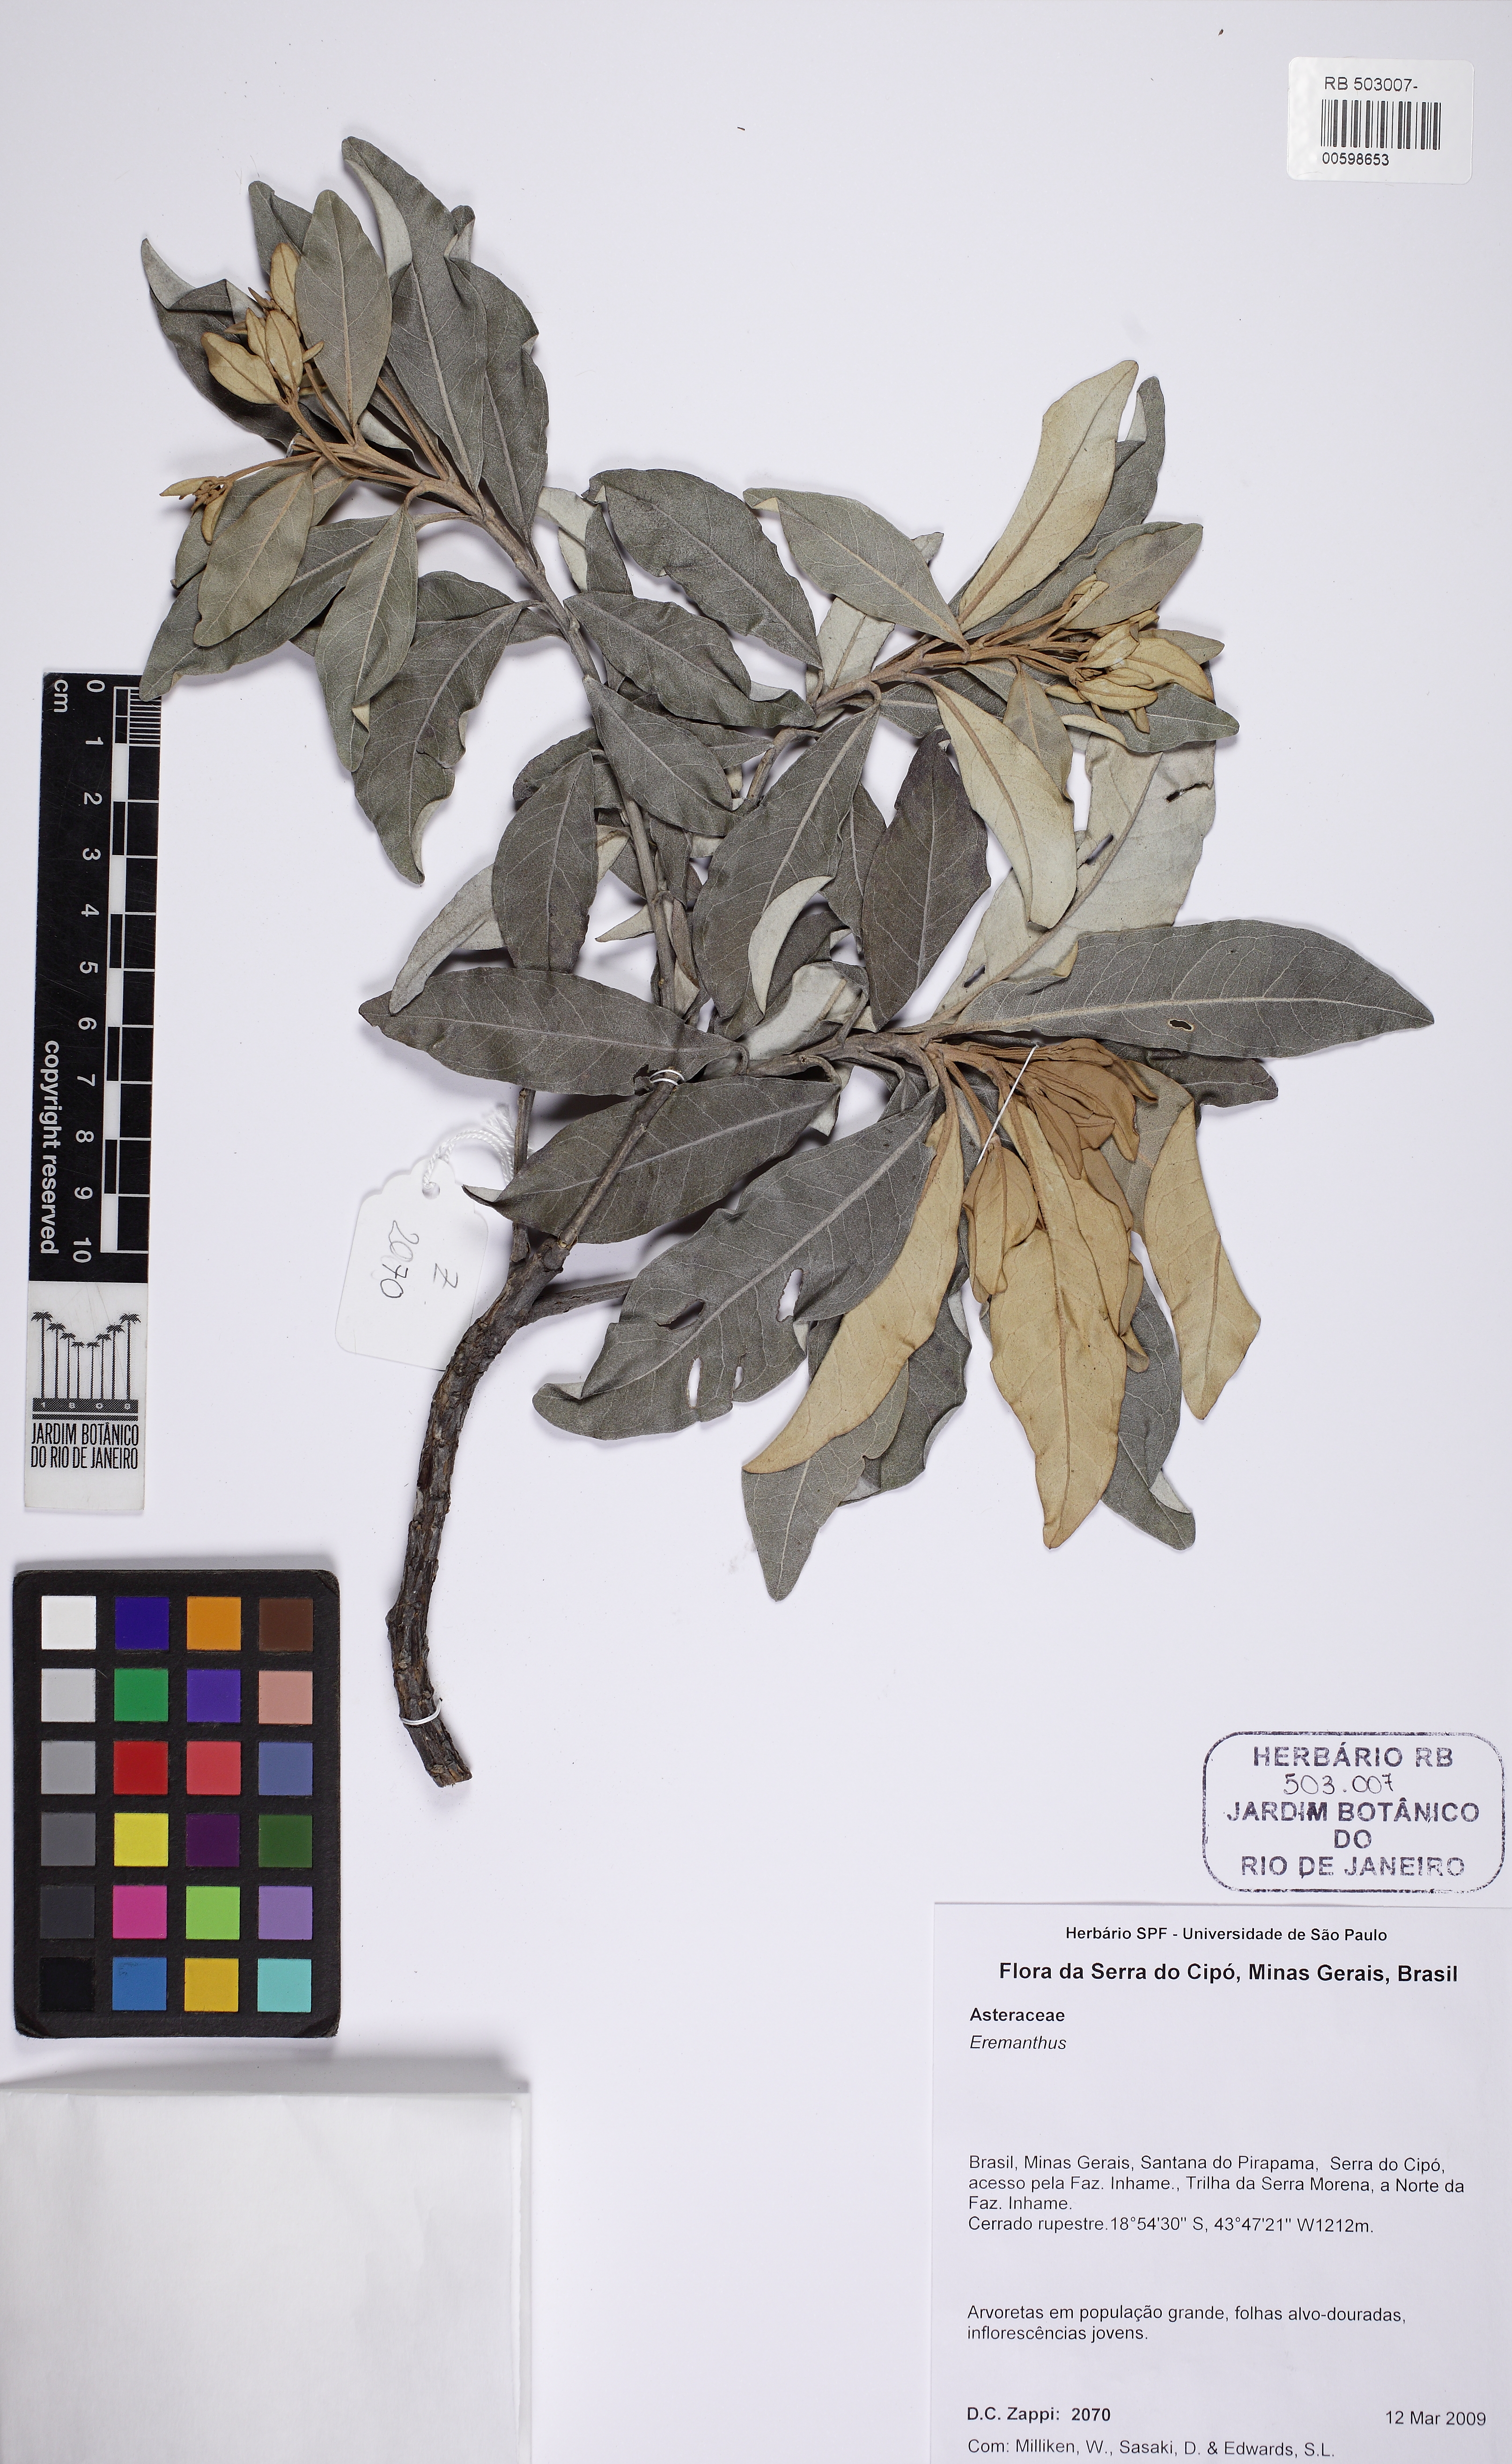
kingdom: Plantae
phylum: Tracheophyta
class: Magnoliopsida
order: Asterales
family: Asteraceae
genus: Eremanthus
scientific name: Eremanthus elaeagnus
